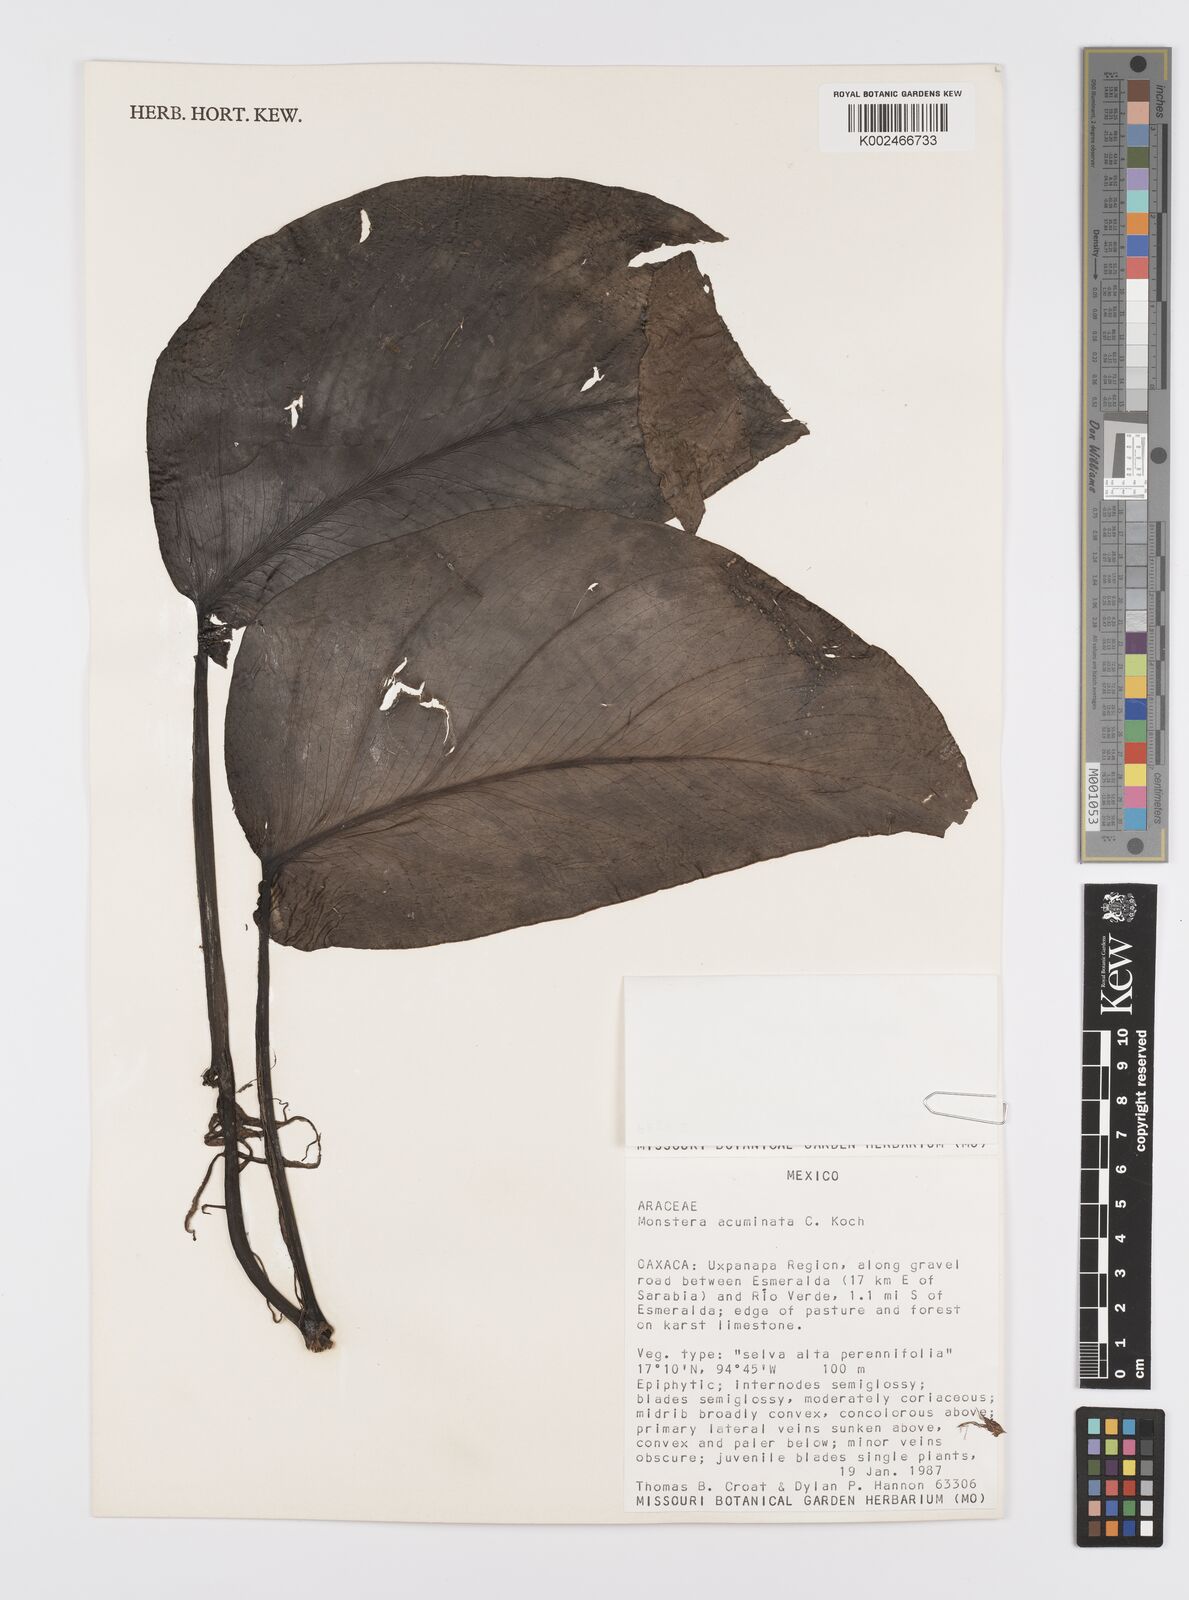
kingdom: Plantae
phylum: Tracheophyta
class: Liliopsida
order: Alismatales
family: Araceae
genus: Monstera
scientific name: Monstera acuminata
